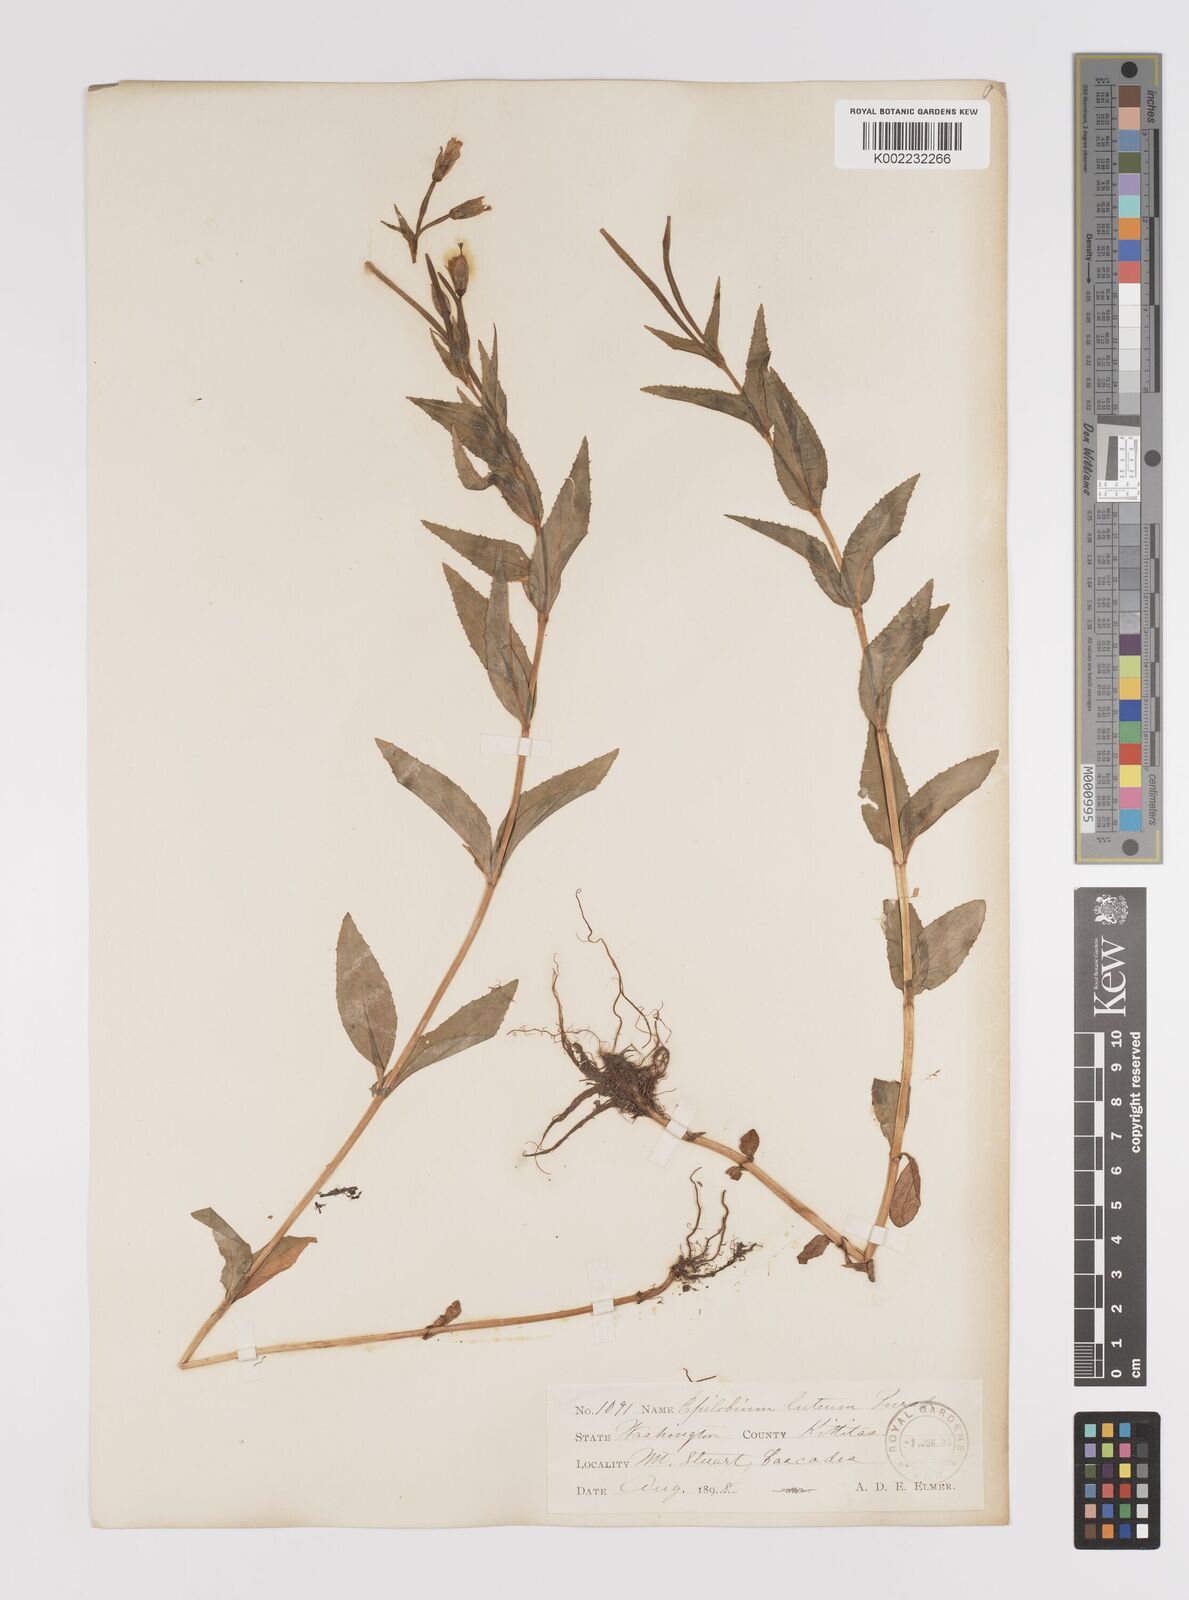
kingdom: Plantae
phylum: Tracheophyta
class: Magnoliopsida
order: Myrtales
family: Onagraceae
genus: Epilobium
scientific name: Epilobium luteum
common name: Yellow willowherb
